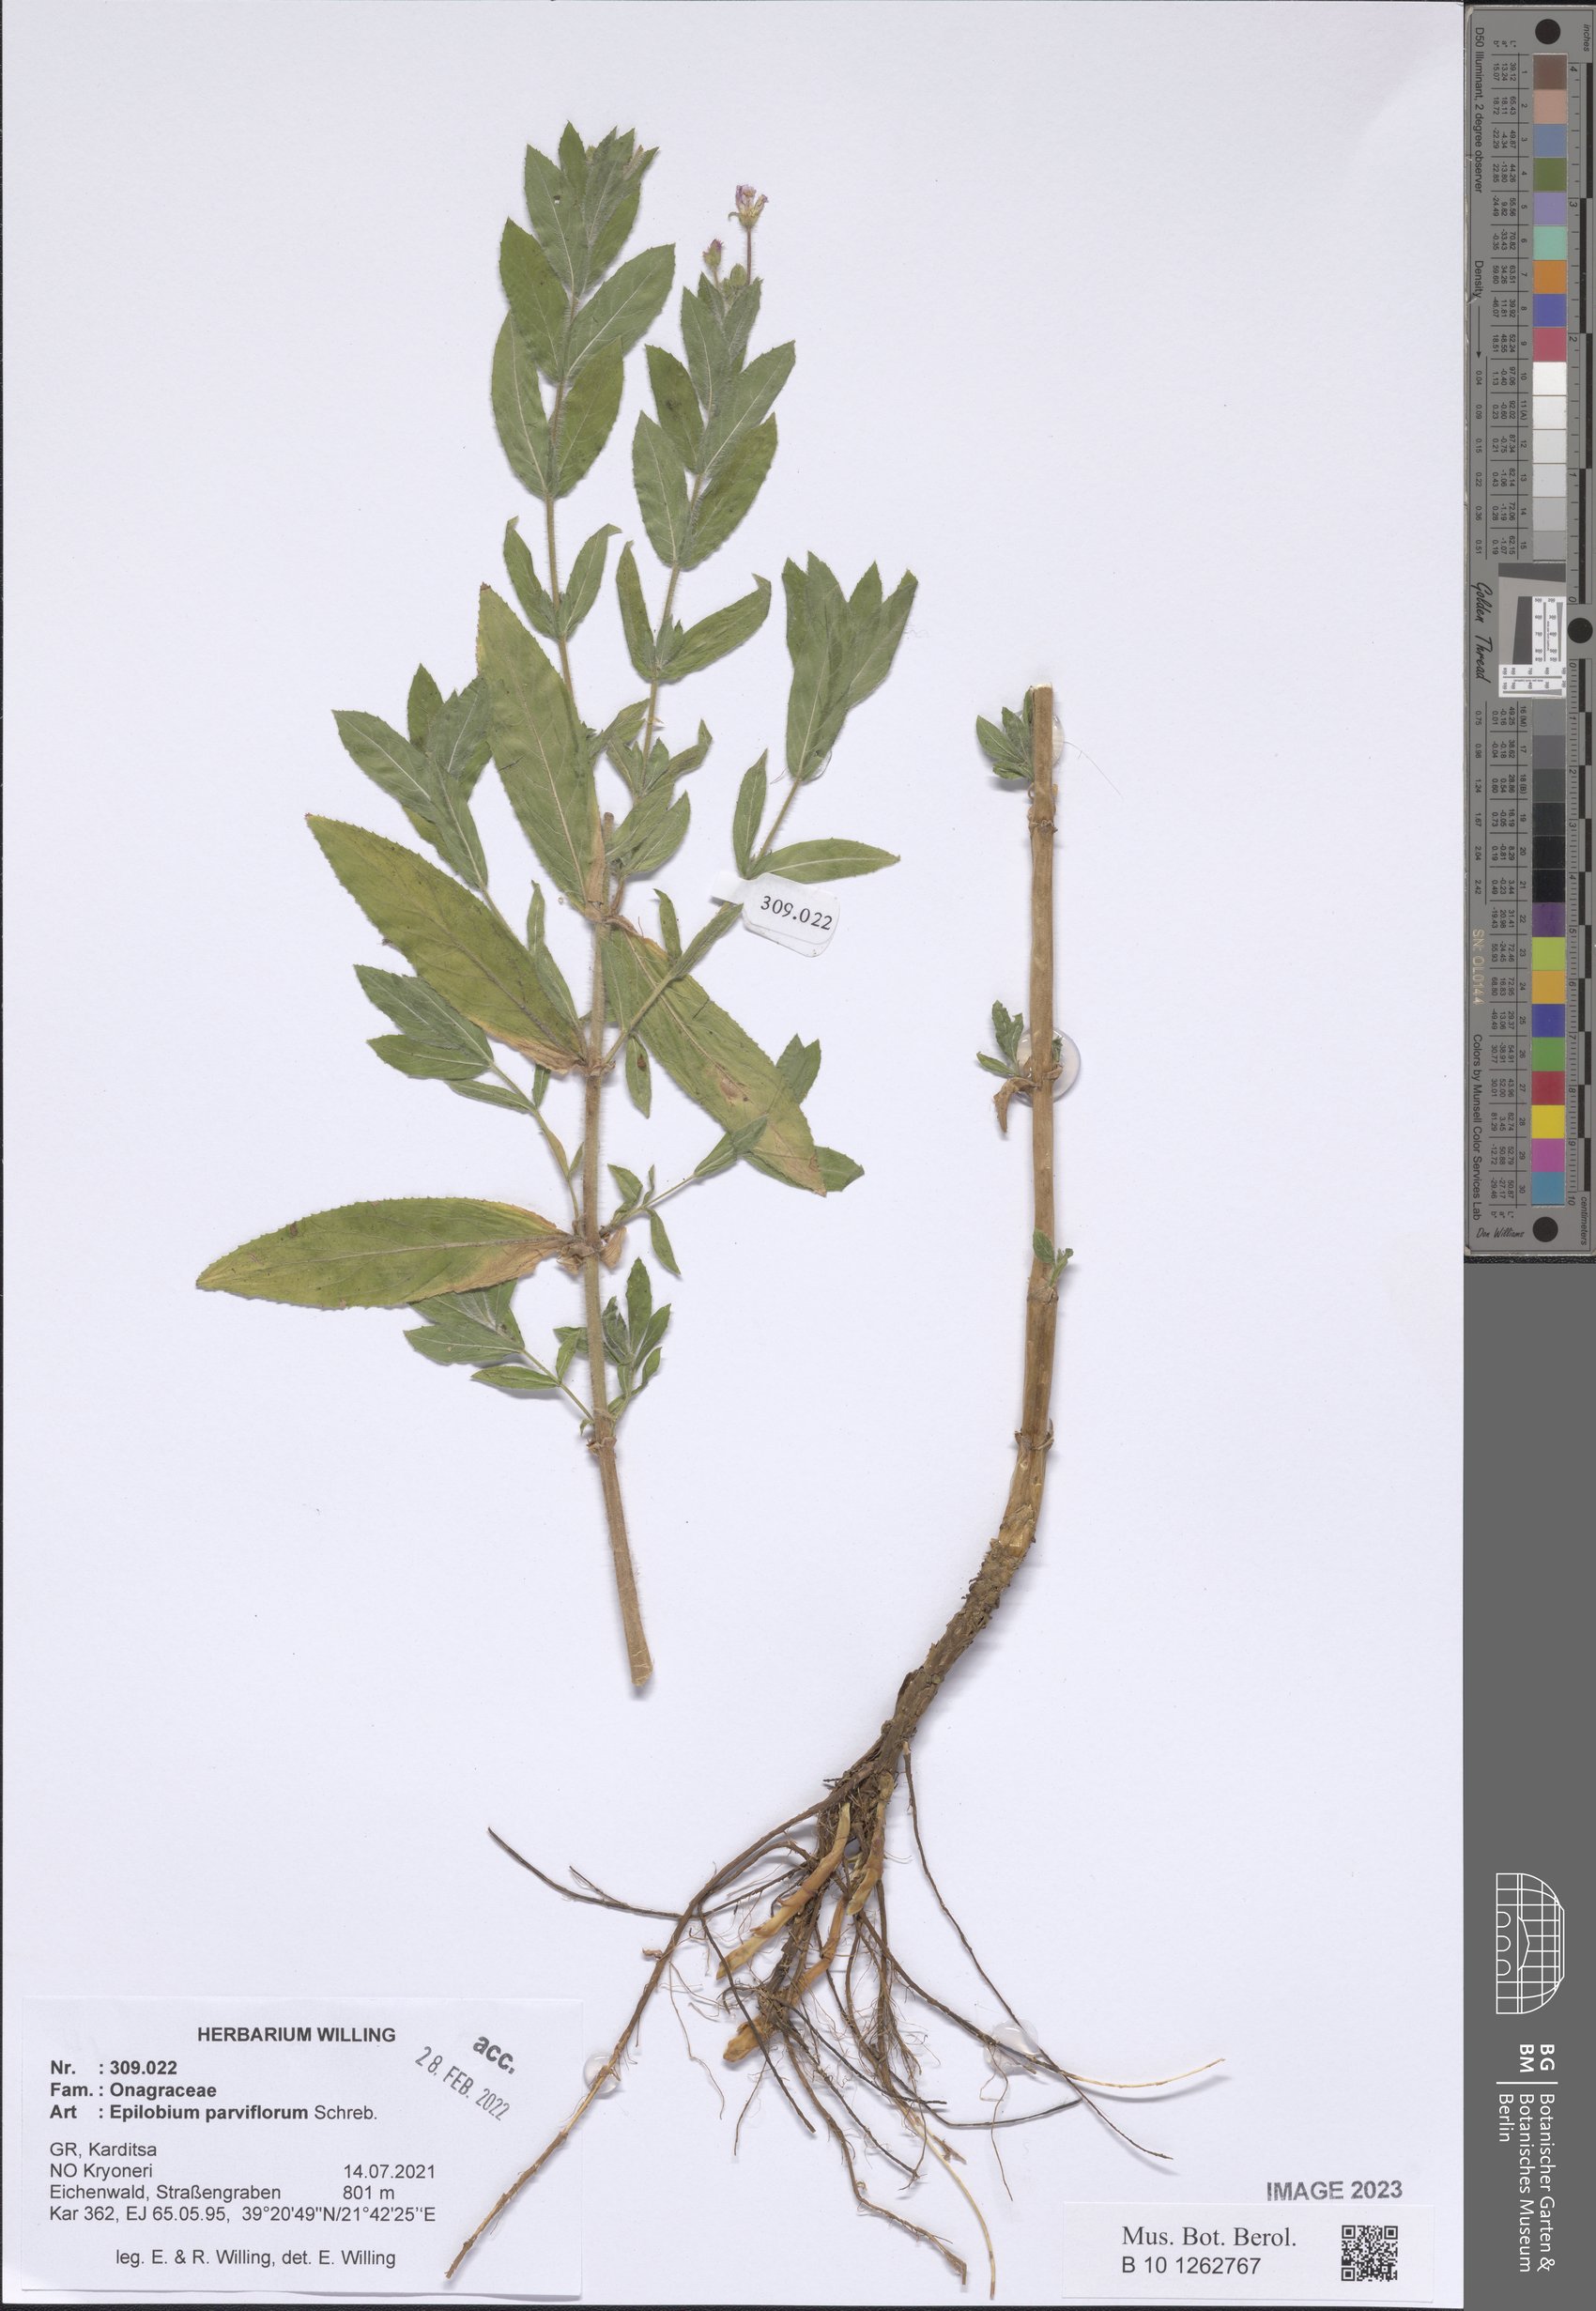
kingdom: Plantae
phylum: Tracheophyta
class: Magnoliopsida
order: Myrtales
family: Onagraceae
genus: Epilobium
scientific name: Epilobium parviflorum
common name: Hoary willowherb
